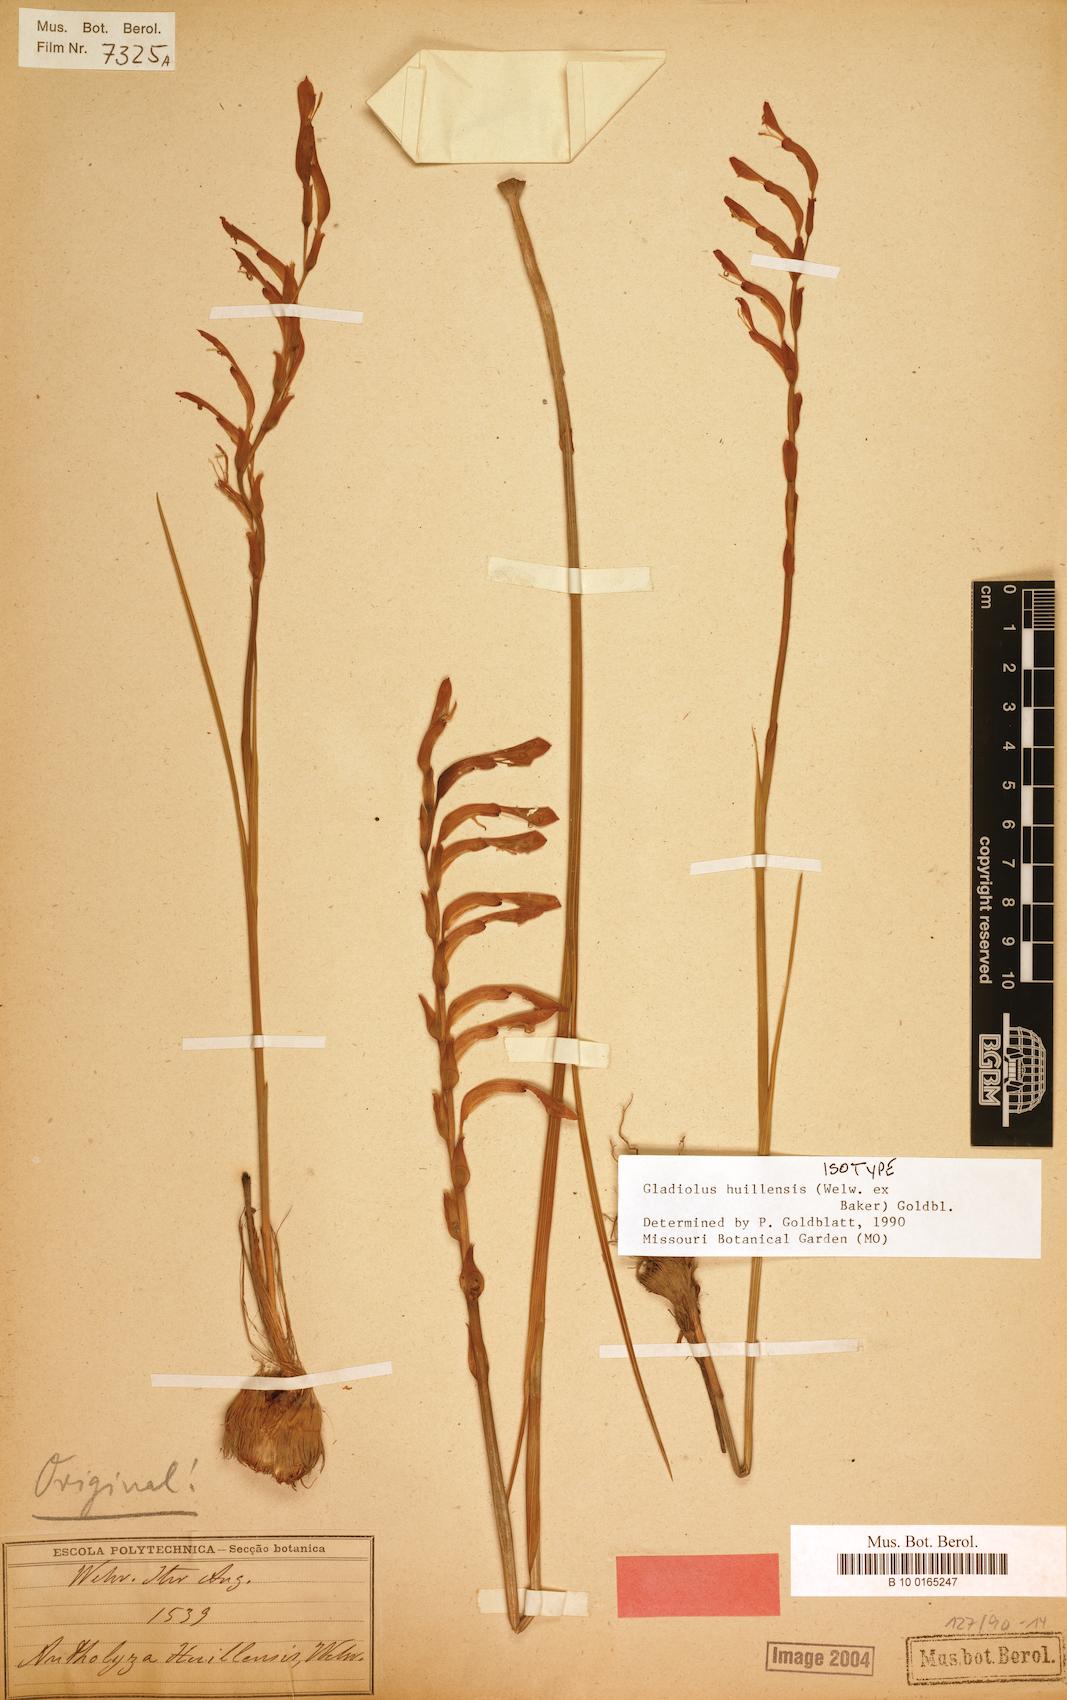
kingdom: Plantae
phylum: Tracheophyta
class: Liliopsida
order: Asparagales
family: Iridaceae
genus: Gladiolus
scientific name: Gladiolus huillensis
